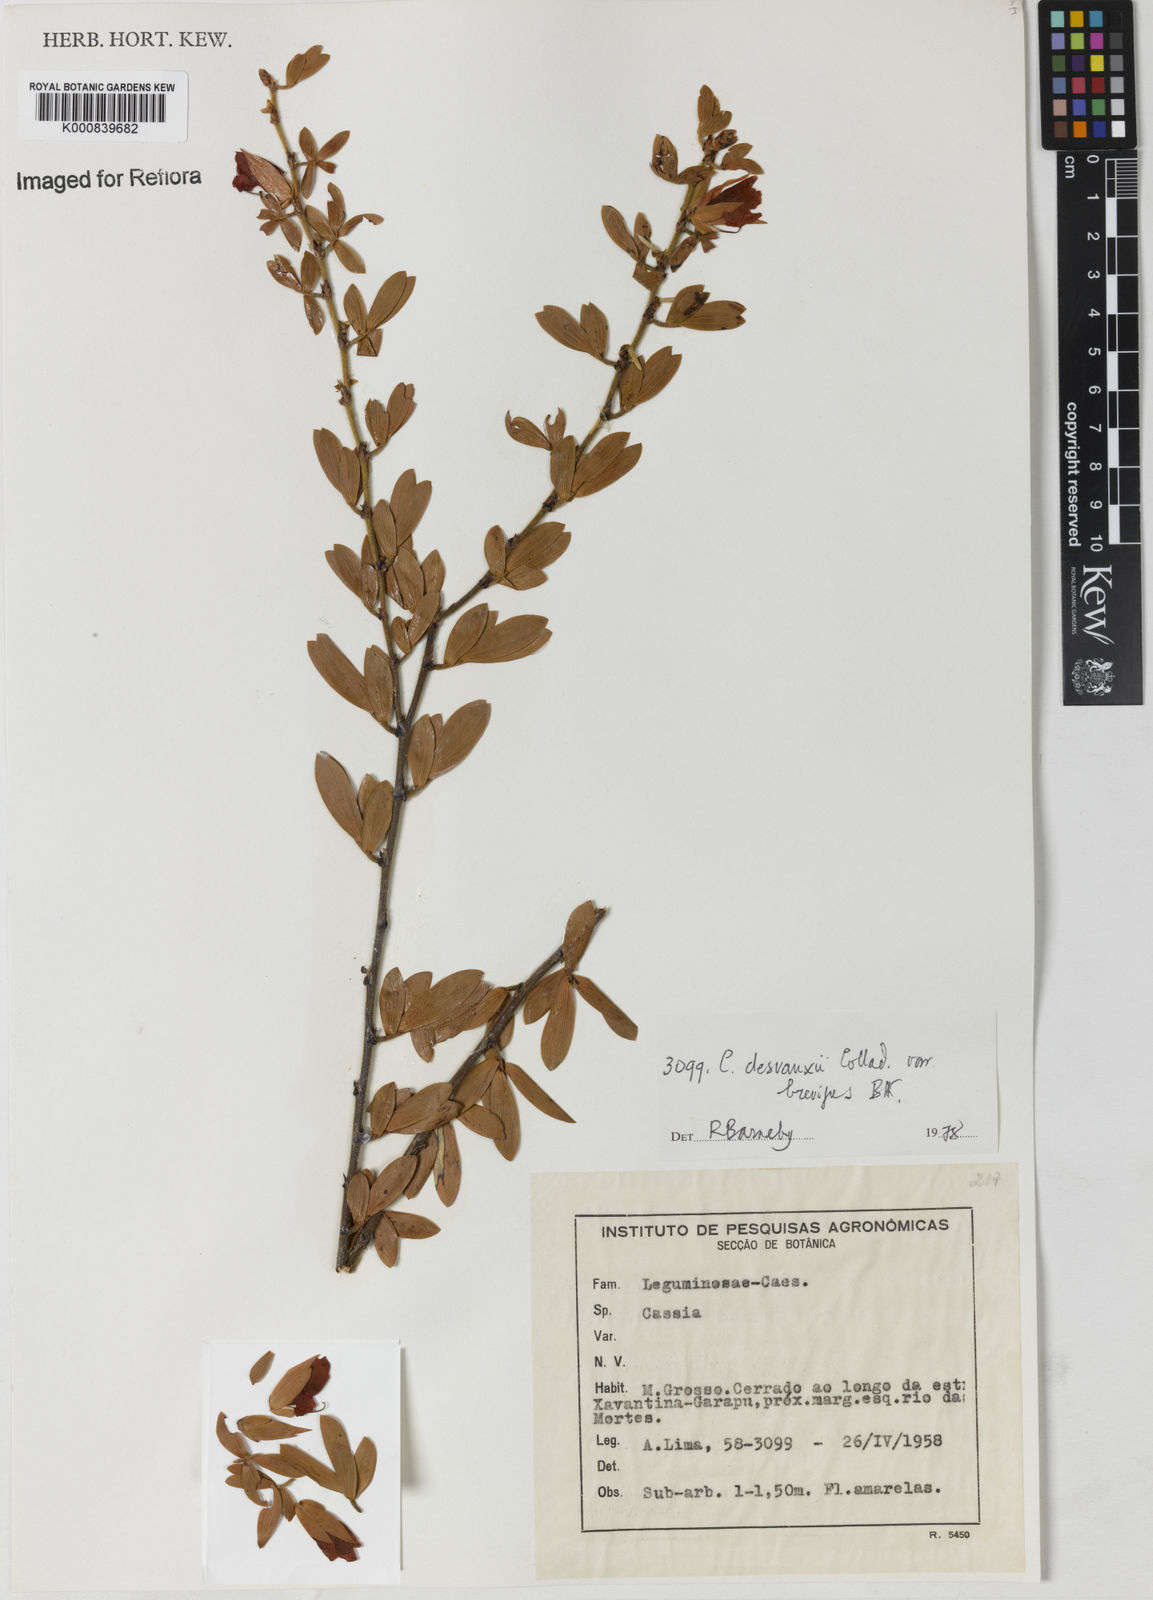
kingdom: Plantae
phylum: Tracheophyta
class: Magnoliopsida
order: Fabales
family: Fabaceae
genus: Chamaecrista
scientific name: Chamaecrista desvauxii
